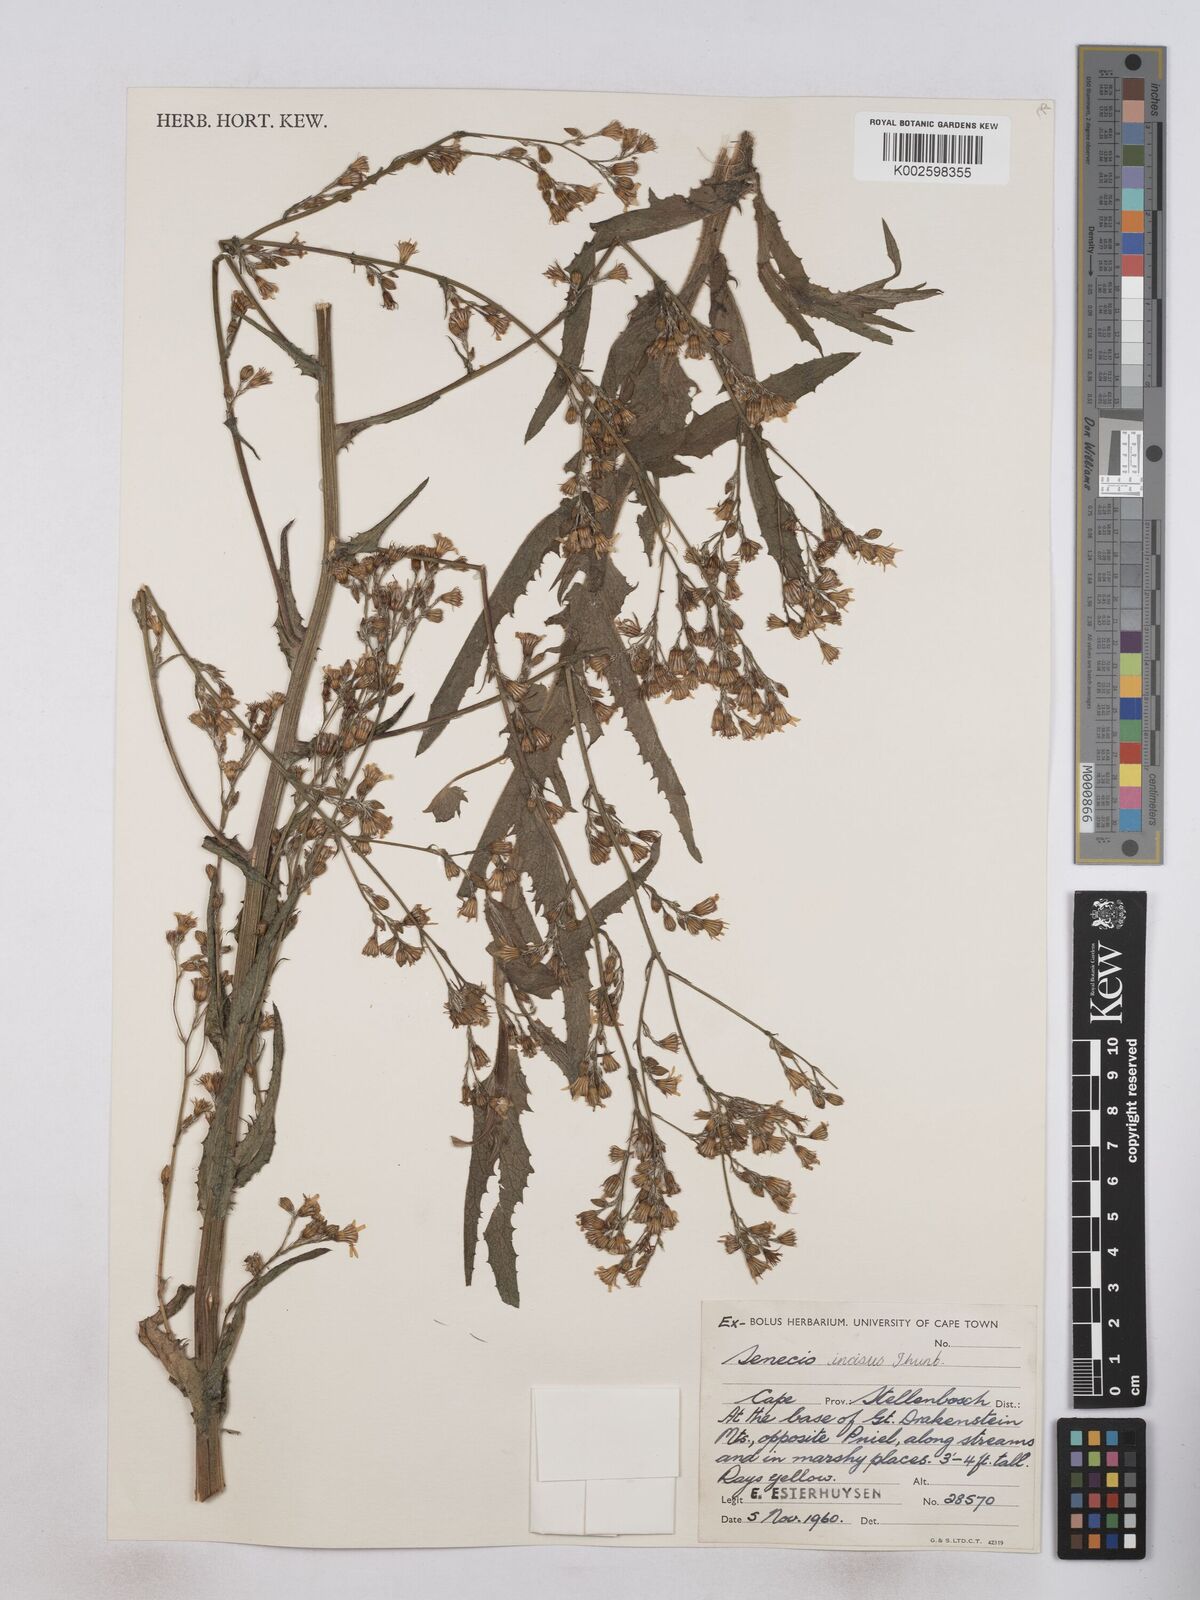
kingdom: Plantae
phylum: Tracheophyta
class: Magnoliopsida
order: Asterales
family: Asteraceae
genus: Senecio
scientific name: Senecio phalachrolaenus
